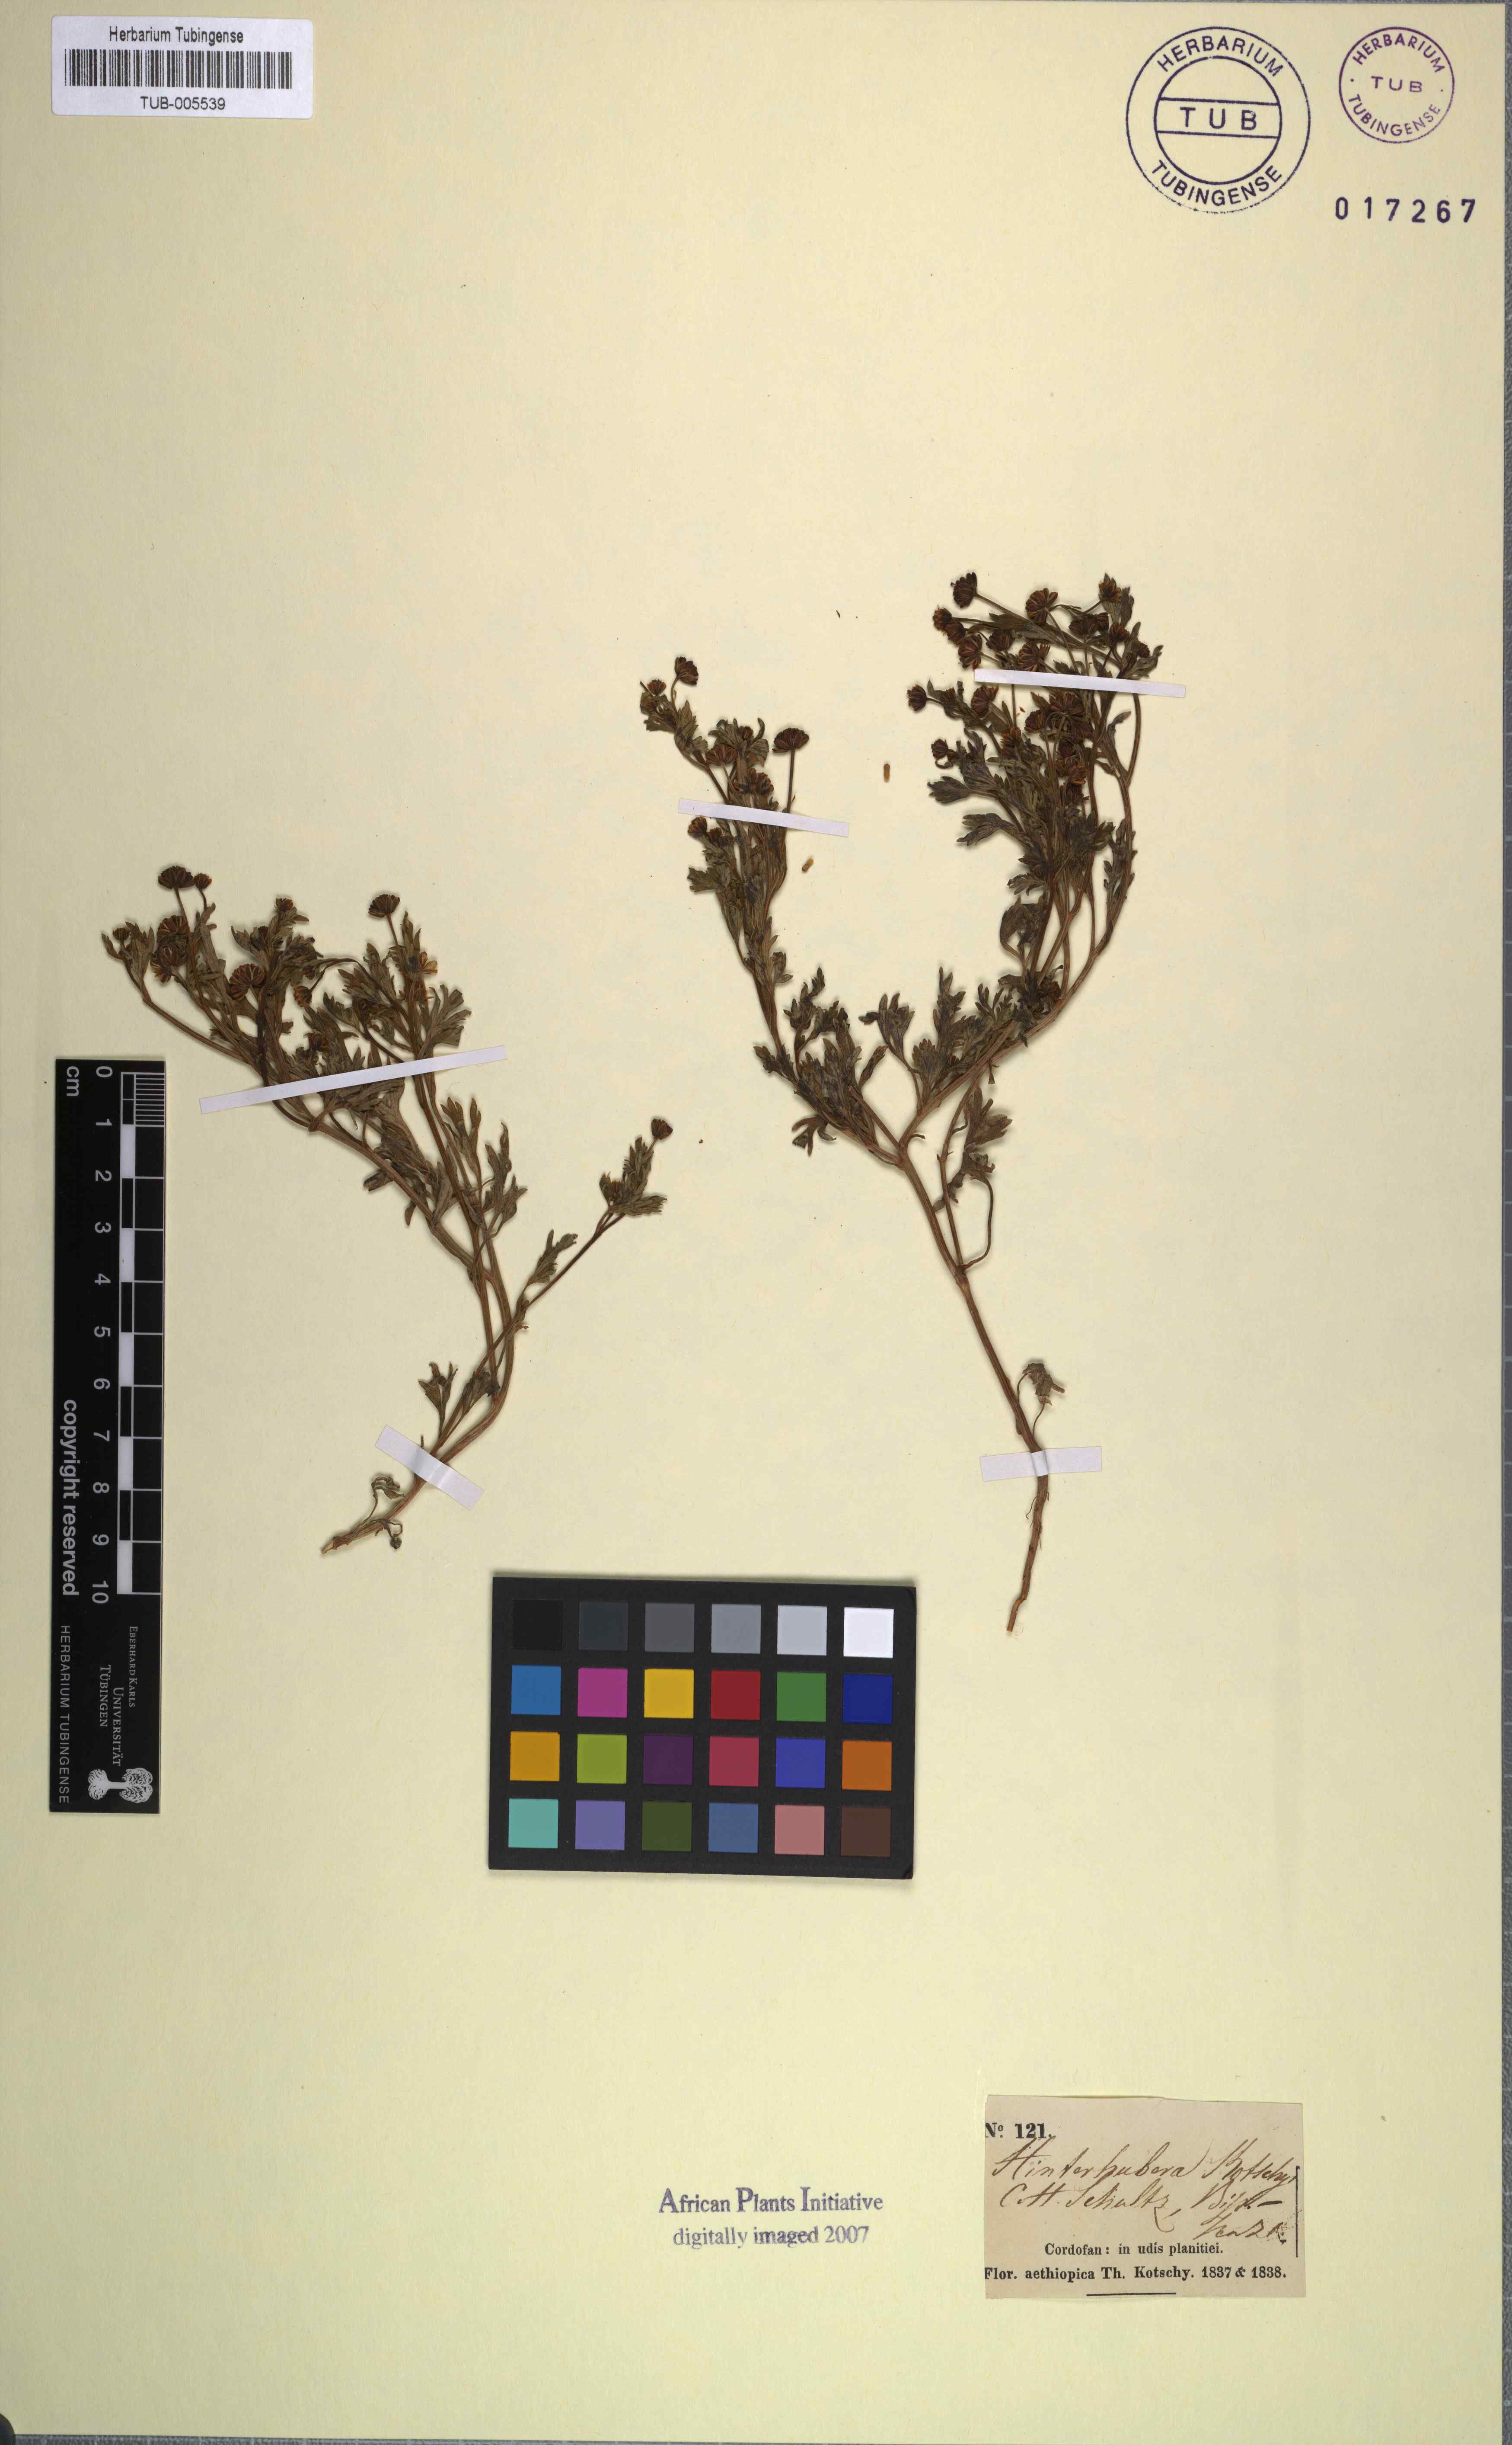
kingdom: Plantae
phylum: Tracheophyta
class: Magnoliopsida
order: Asterales
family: Asteraceae
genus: Chrysanthellum
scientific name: Chrysanthellum indicum
